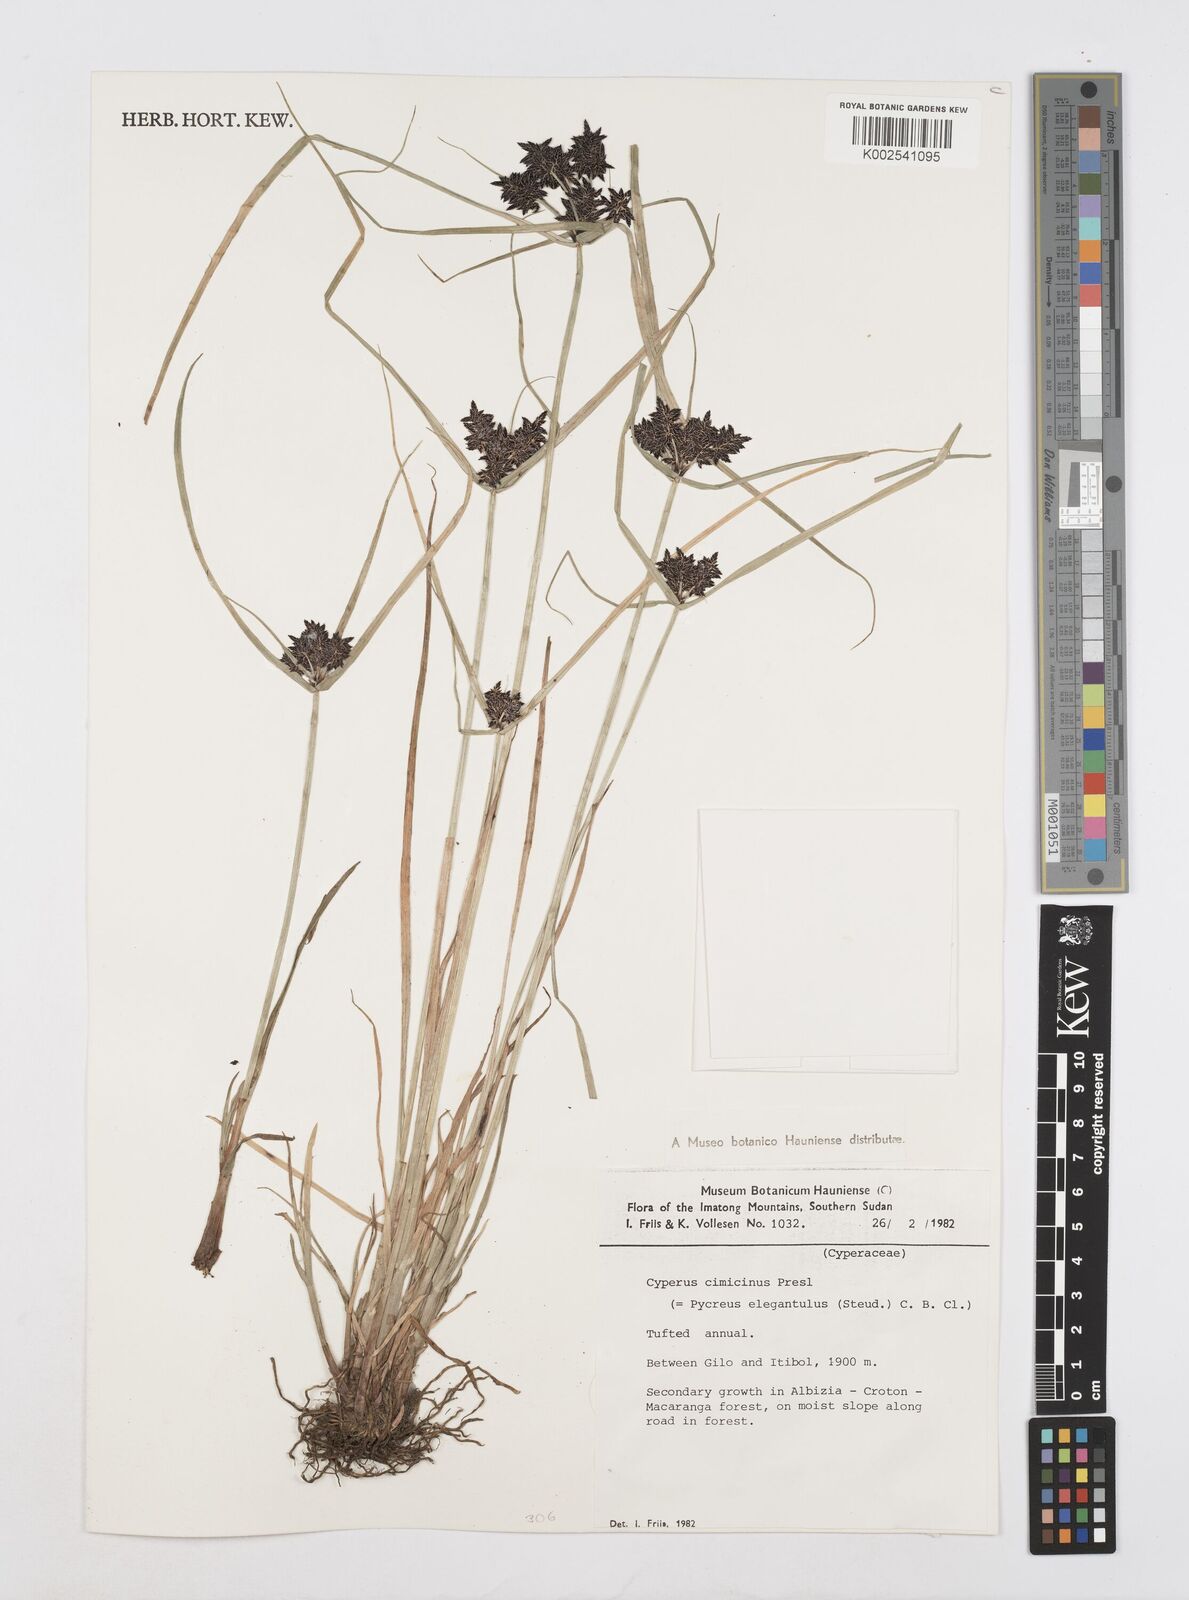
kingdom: Plantae
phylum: Tracheophyta
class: Liliopsida
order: Poales
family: Cyperaceae
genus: Cyperus
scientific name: Cyperus elegantulus
